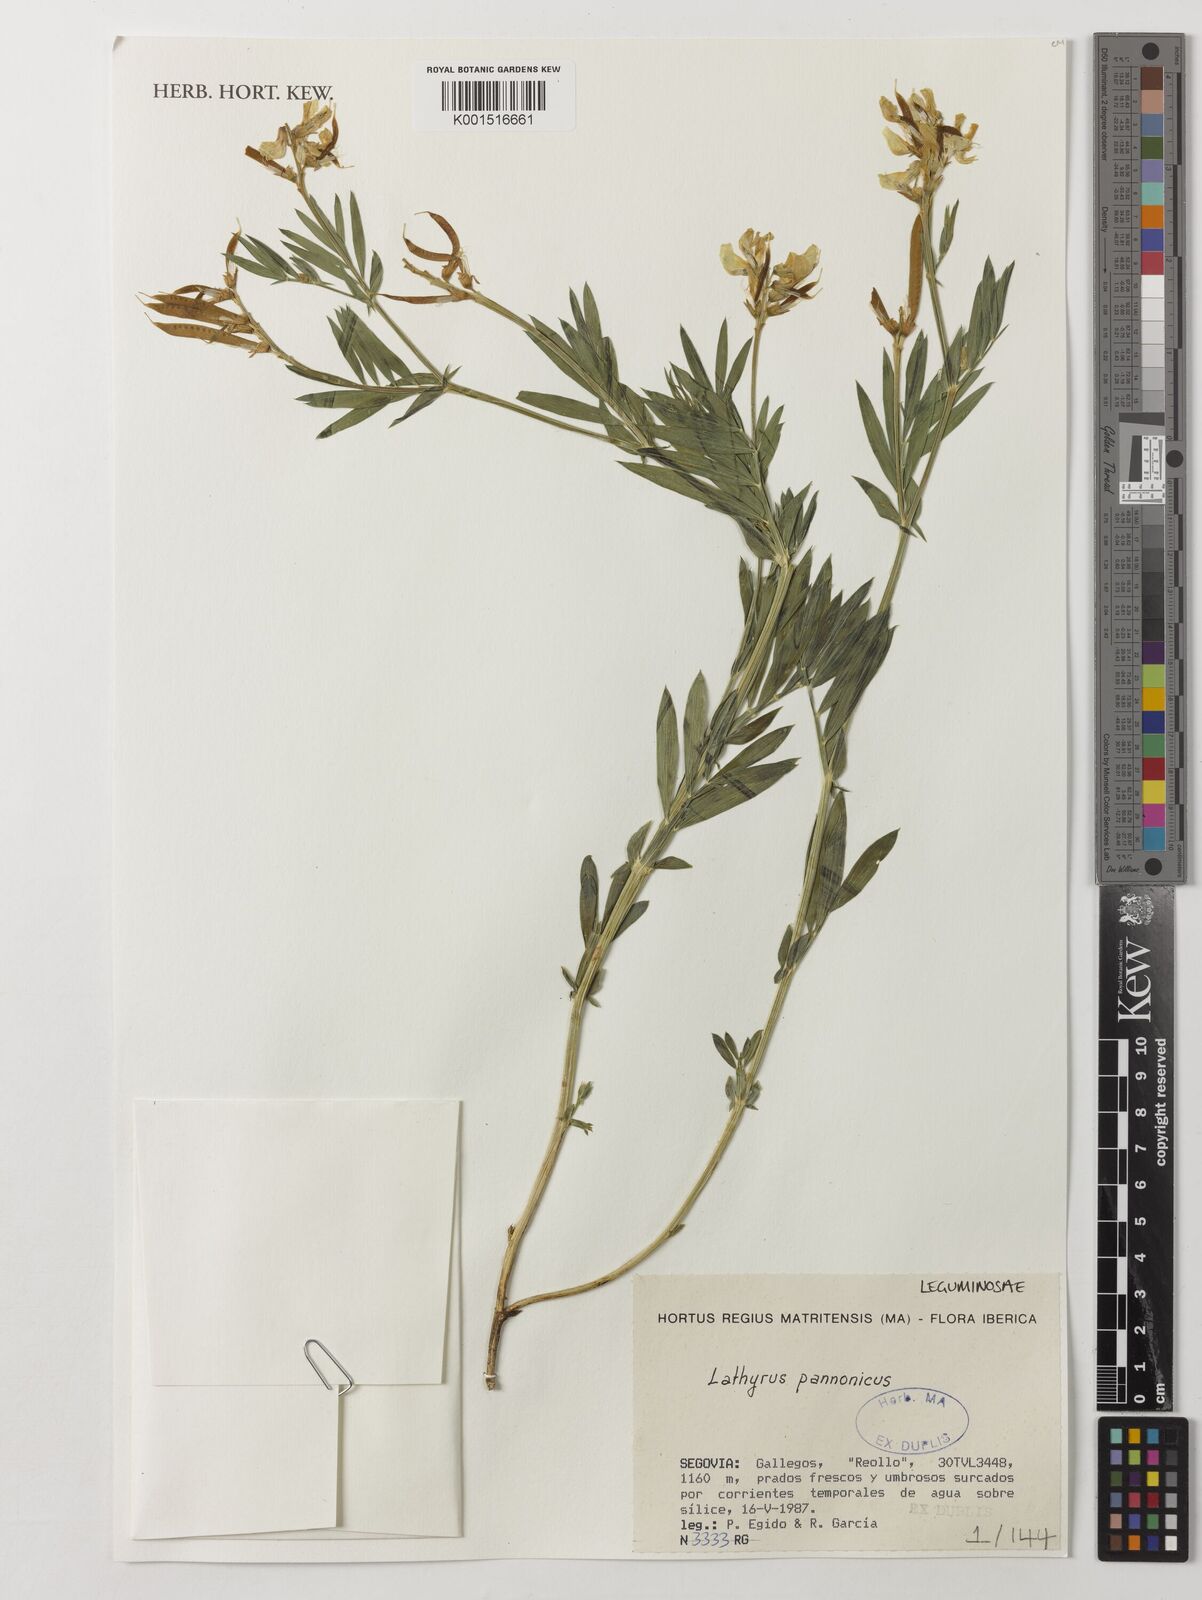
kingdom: Plantae
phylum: Tracheophyta
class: Magnoliopsida
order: Fabales
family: Fabaceae
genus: Lathyrus
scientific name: Lathyrus pannonicus
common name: Pea
